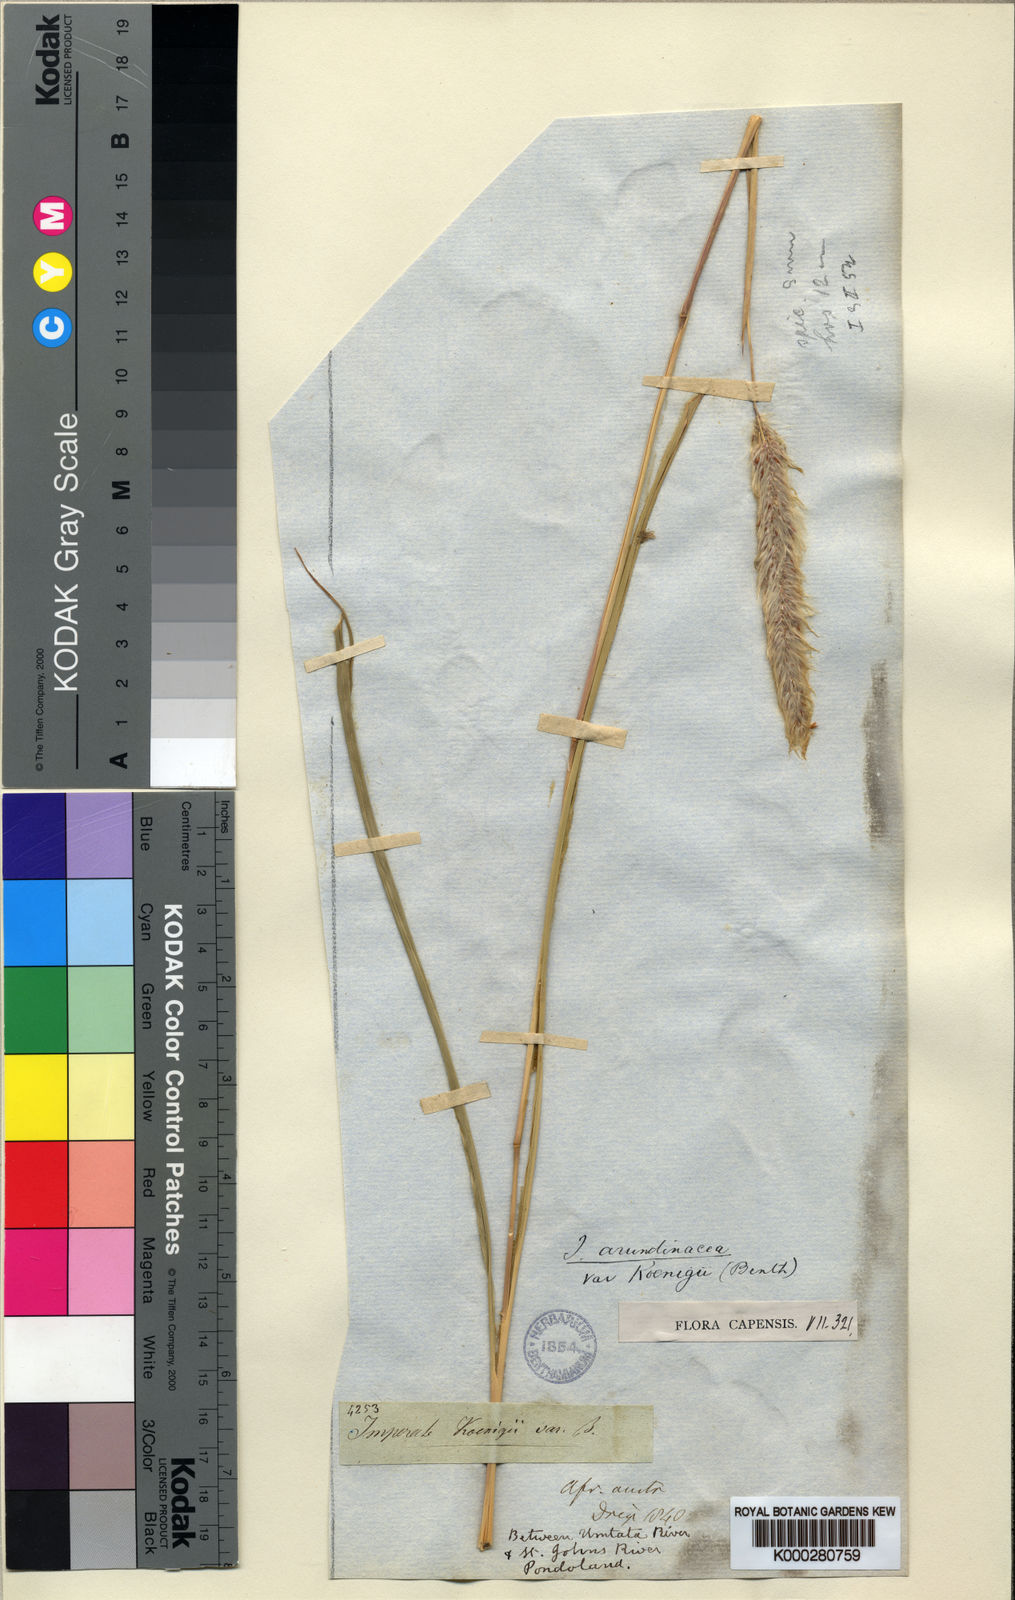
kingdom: Plantae
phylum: Tracheophyta
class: Liliopsida
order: Poales
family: Poaceae
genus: Imperata
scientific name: Imperata
